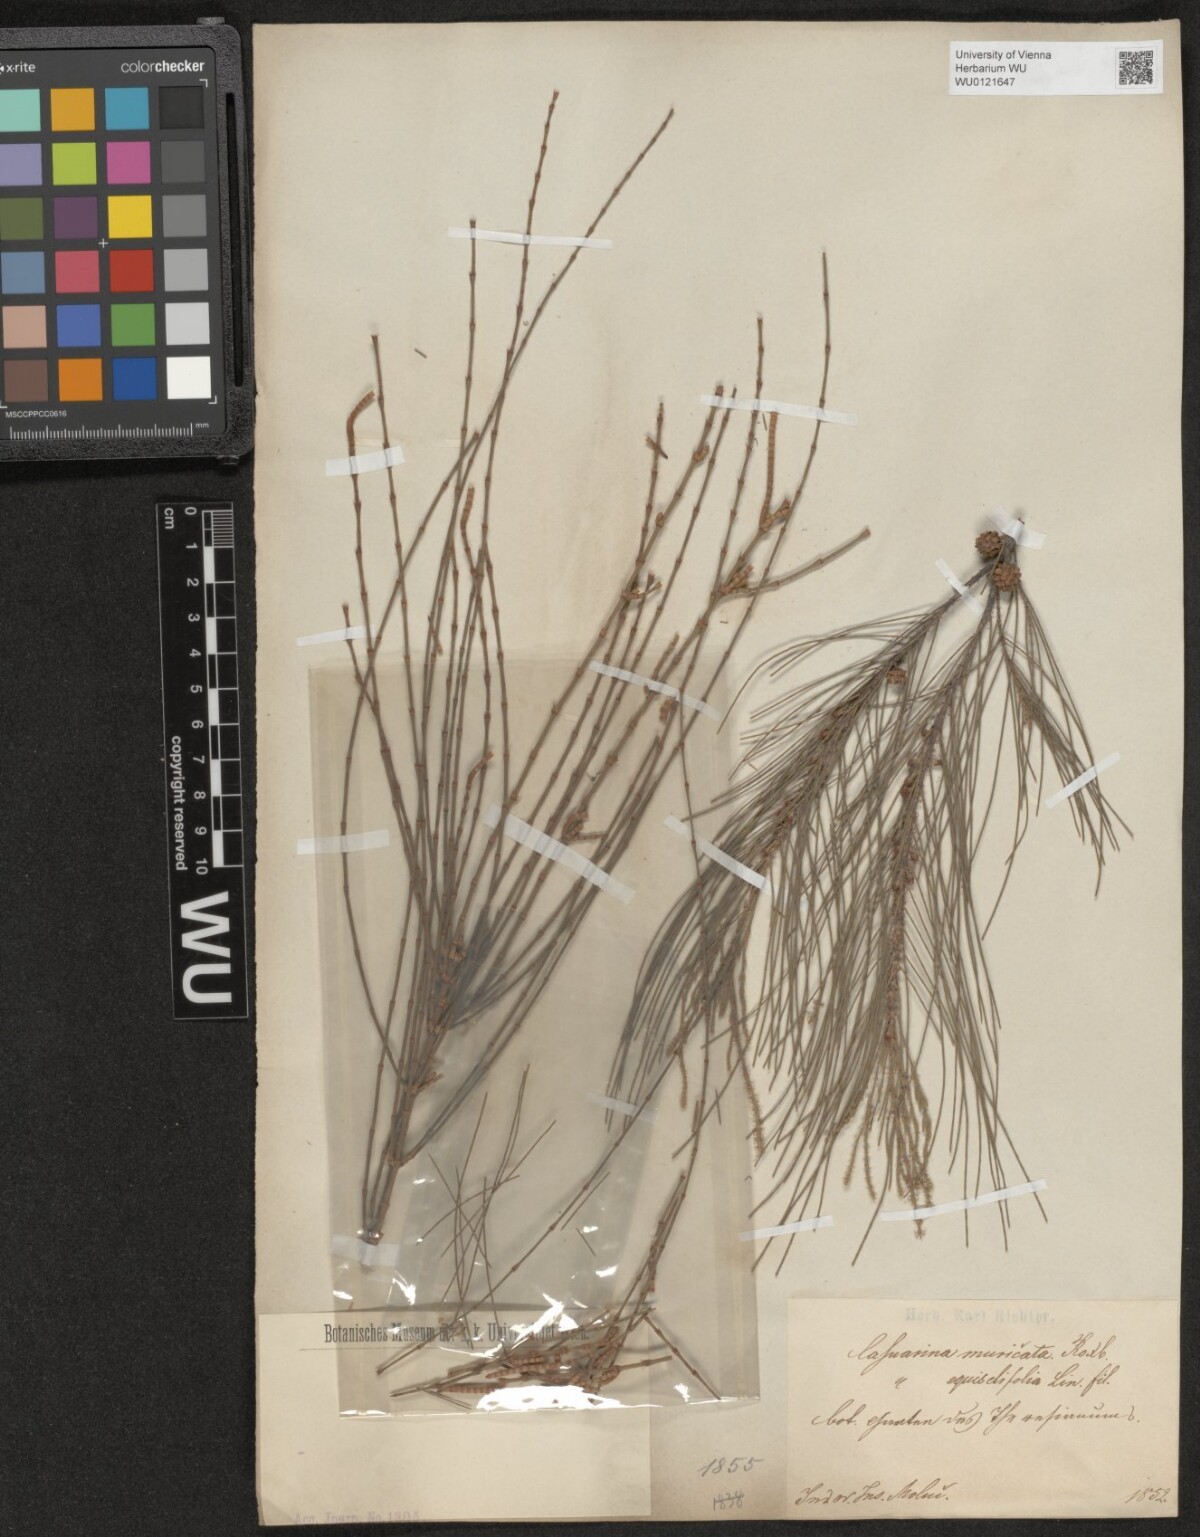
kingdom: Plantae
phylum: Tracheophyta
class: Magnoliopsida
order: Fagales
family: Casuarinaceae
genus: Casuarina
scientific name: Casuarina junghuhniana
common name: Mountain ru
